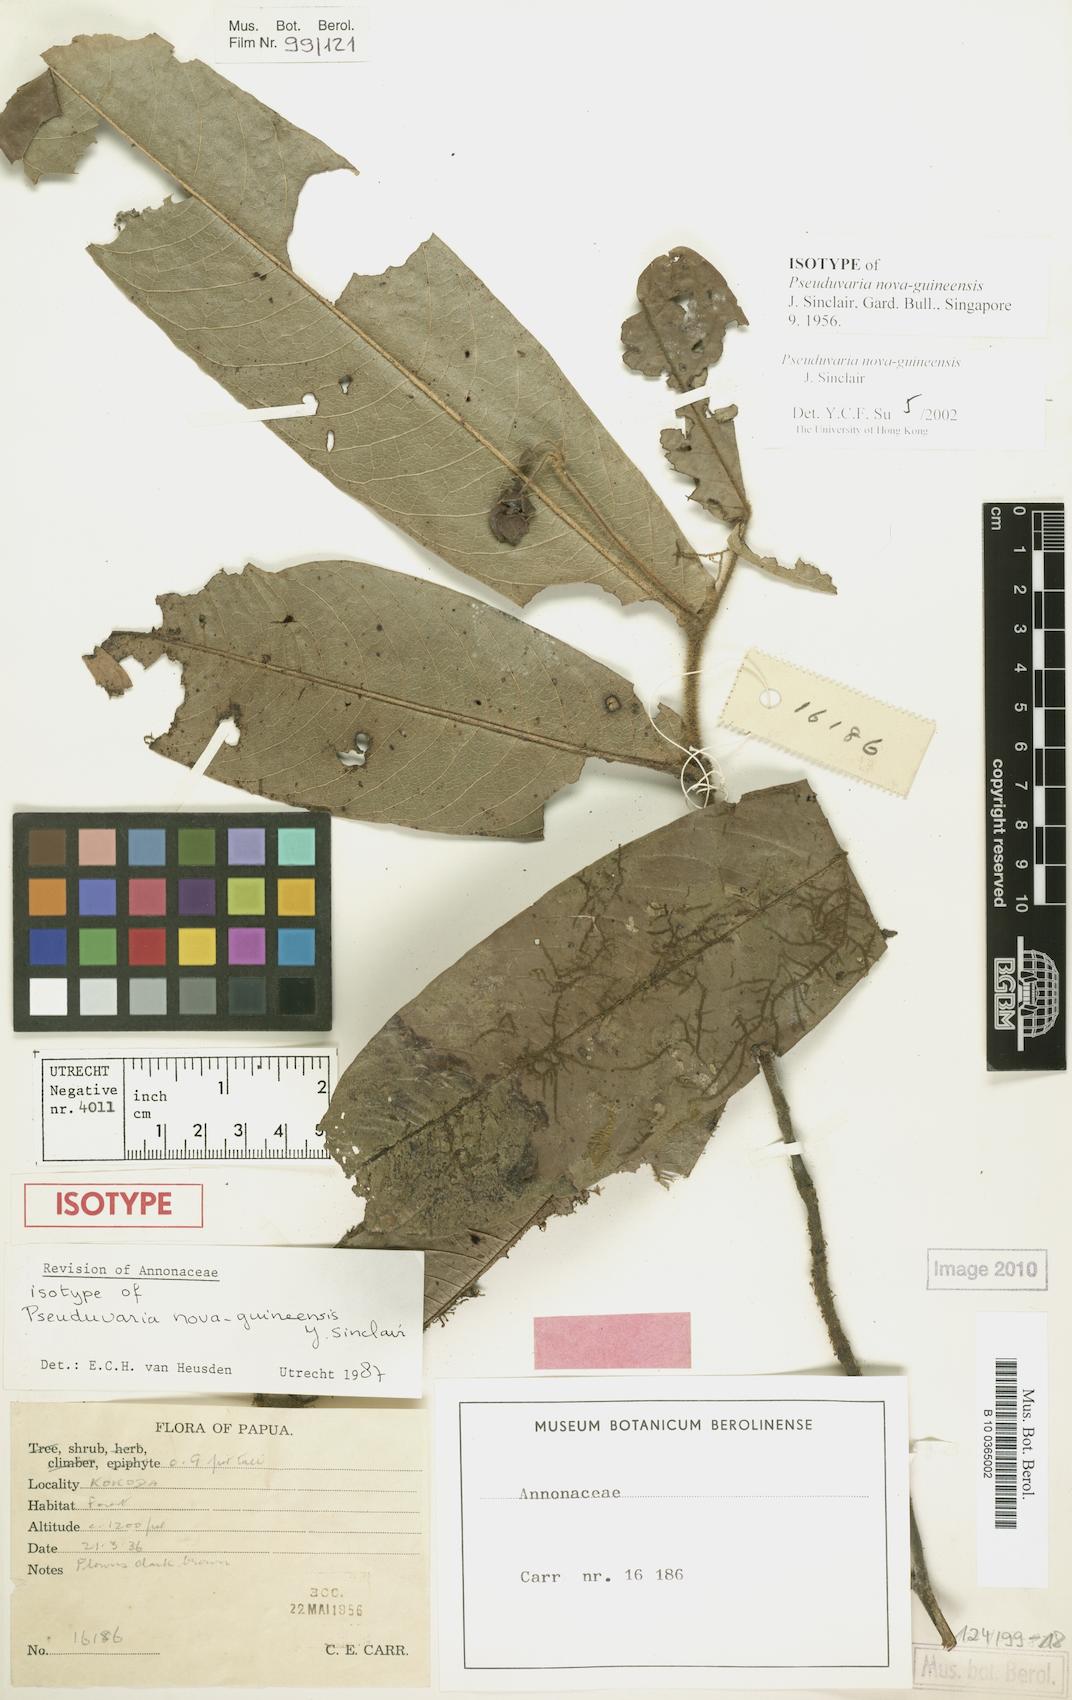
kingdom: Plantae
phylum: Tracheophyta
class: Magnoliopsida
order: Magnoliales
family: Annonaceae
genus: Pseuduvaria
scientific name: Pseuduvaria nova-guineensis
